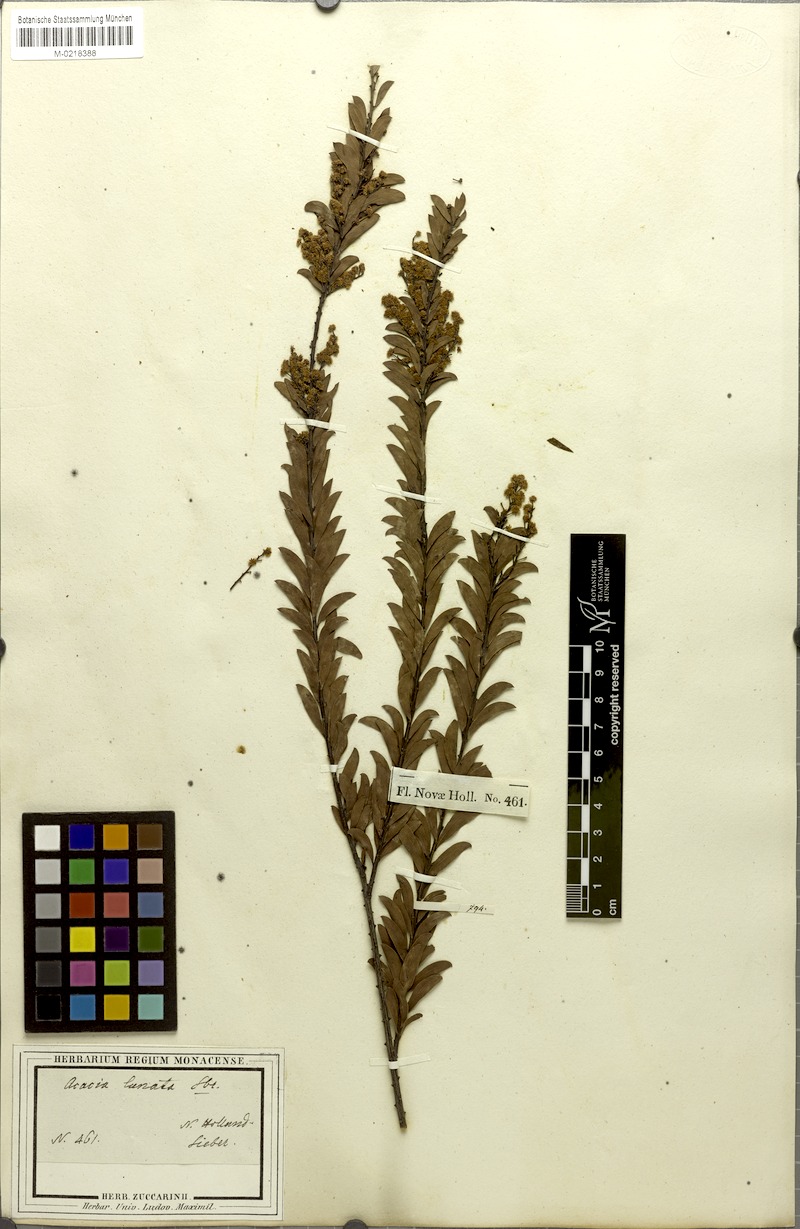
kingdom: Plantae
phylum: Tracheophyta
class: Magnoliopsida
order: Fabales
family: Fabaceae
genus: Acacia
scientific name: Acacia lunata
